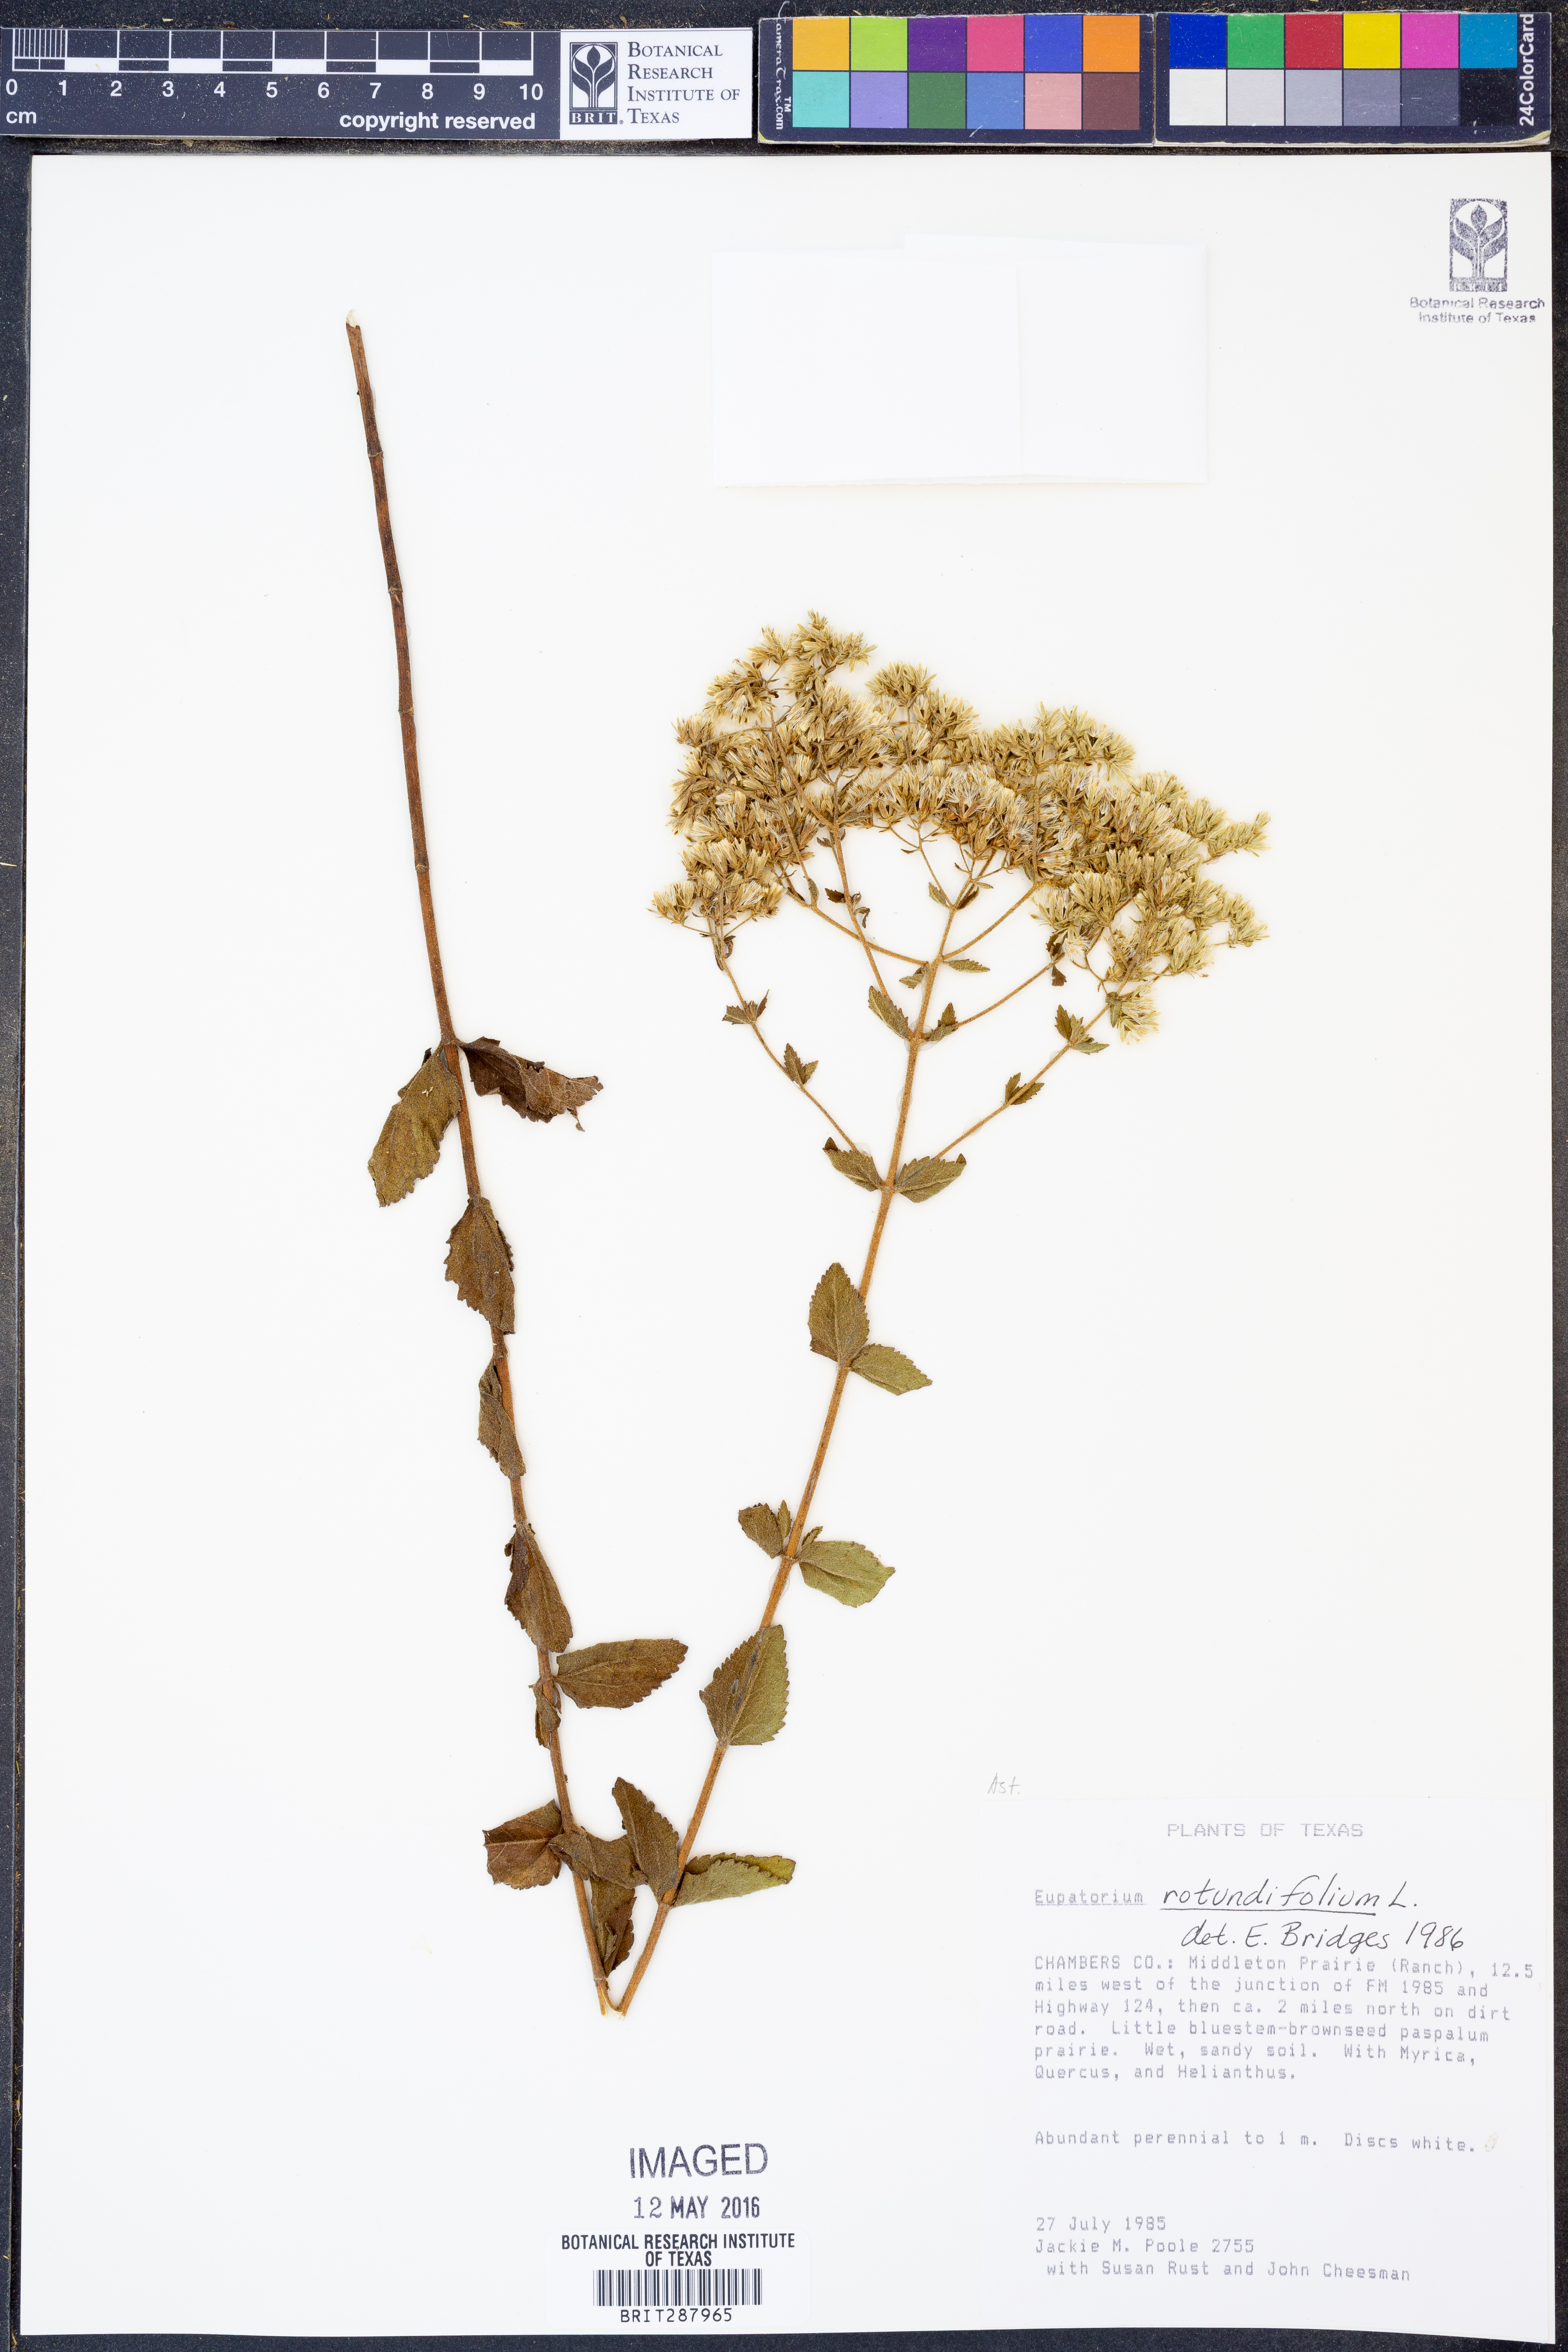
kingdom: Plantae
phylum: Tracheophyta
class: Magnoliopsida
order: Asterales
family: Asteraceae
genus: Eupatorium
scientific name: Eupatorium rotundifolium
